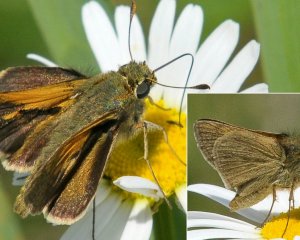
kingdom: Animalia
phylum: Arthropoda
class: Insecta
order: Lepidoptera
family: Hesperiidae
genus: Polites
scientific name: Polites themistocles
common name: Tawny-edged Skipper
